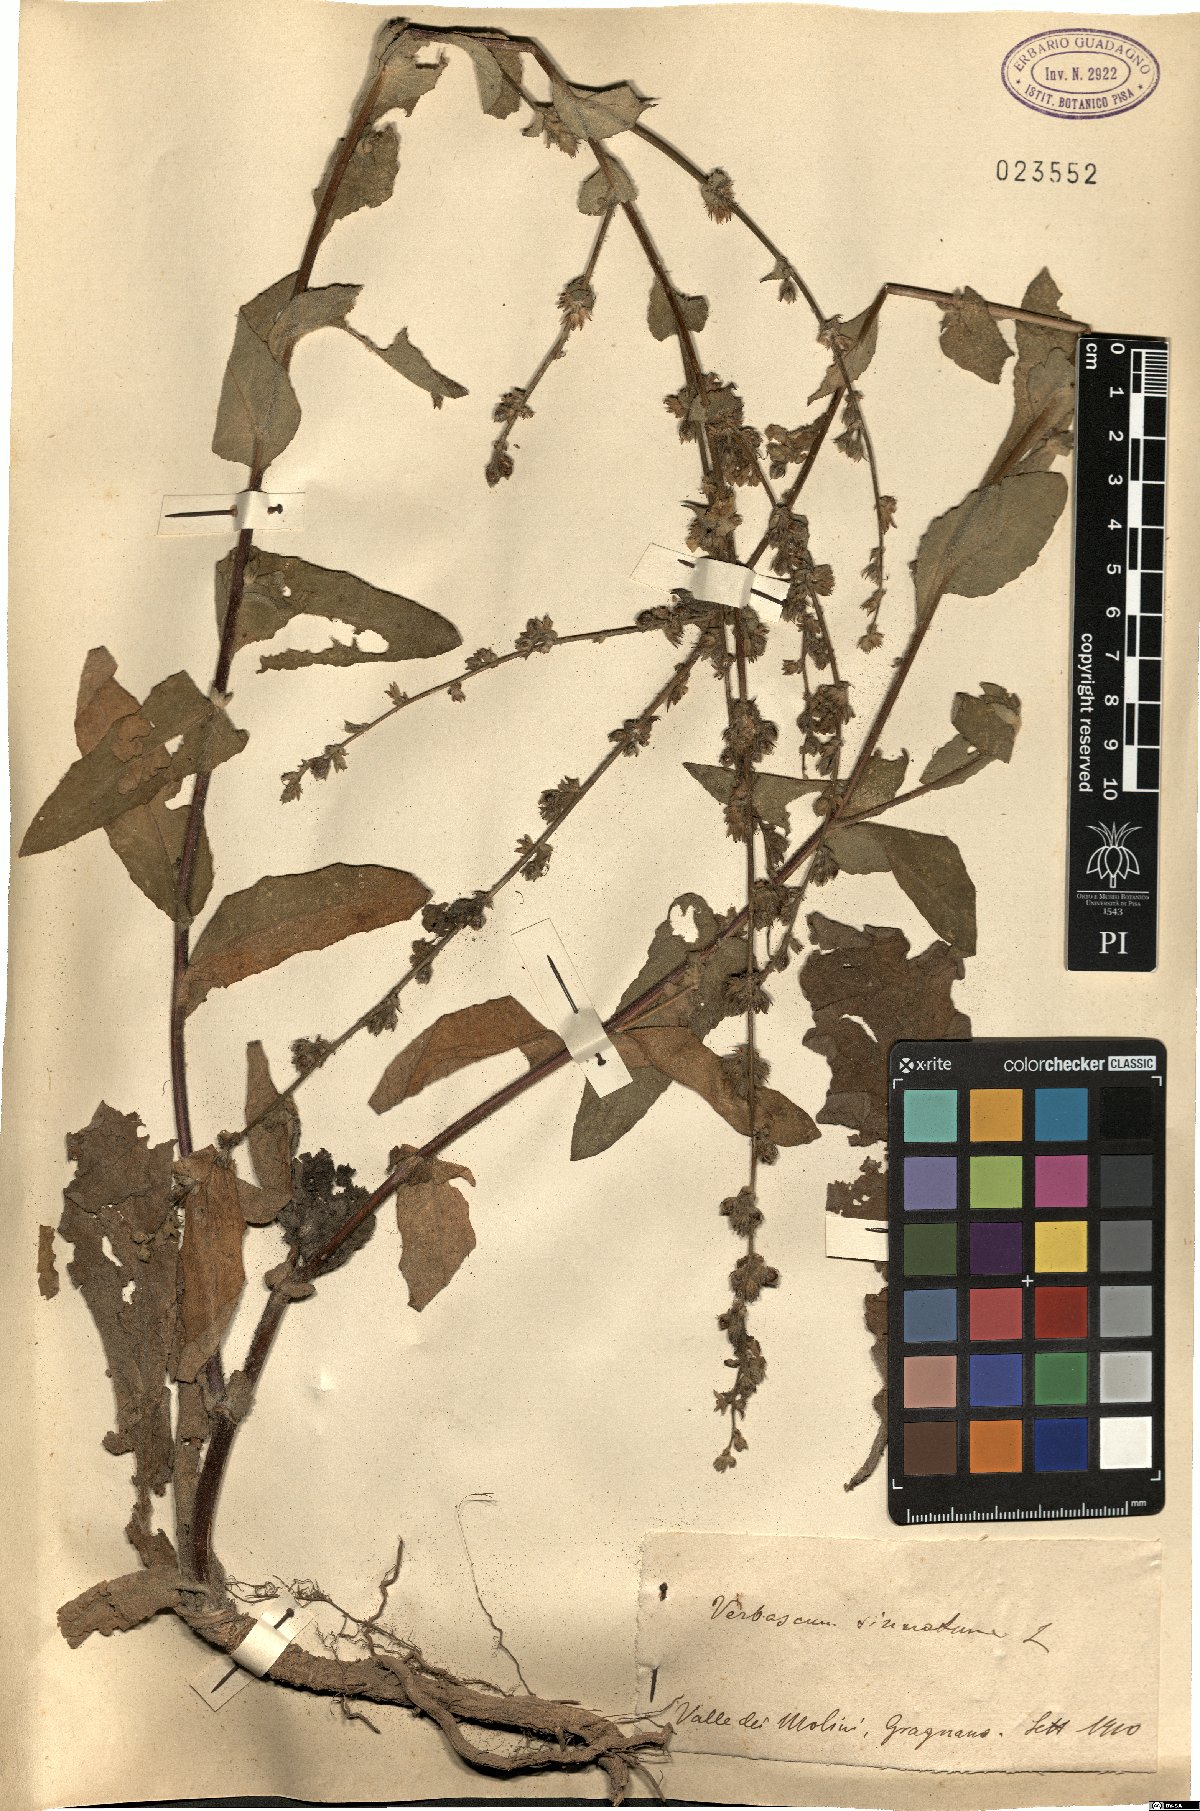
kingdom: Plantae
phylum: Tracheophyta
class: Magnoliopsida
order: Lamiales
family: Scrophulariaceae
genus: Verbascum
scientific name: Verbascum sinuatum
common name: Wavyleaf mullein
